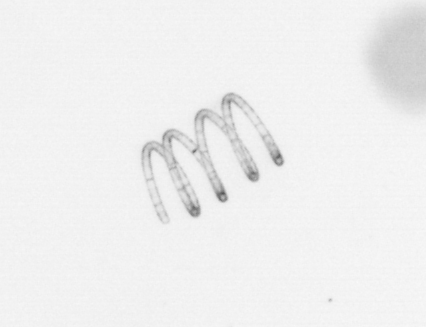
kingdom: Chromista
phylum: Ochrophyta
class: Bacillariophyceae
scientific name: Bacillariophyceae
